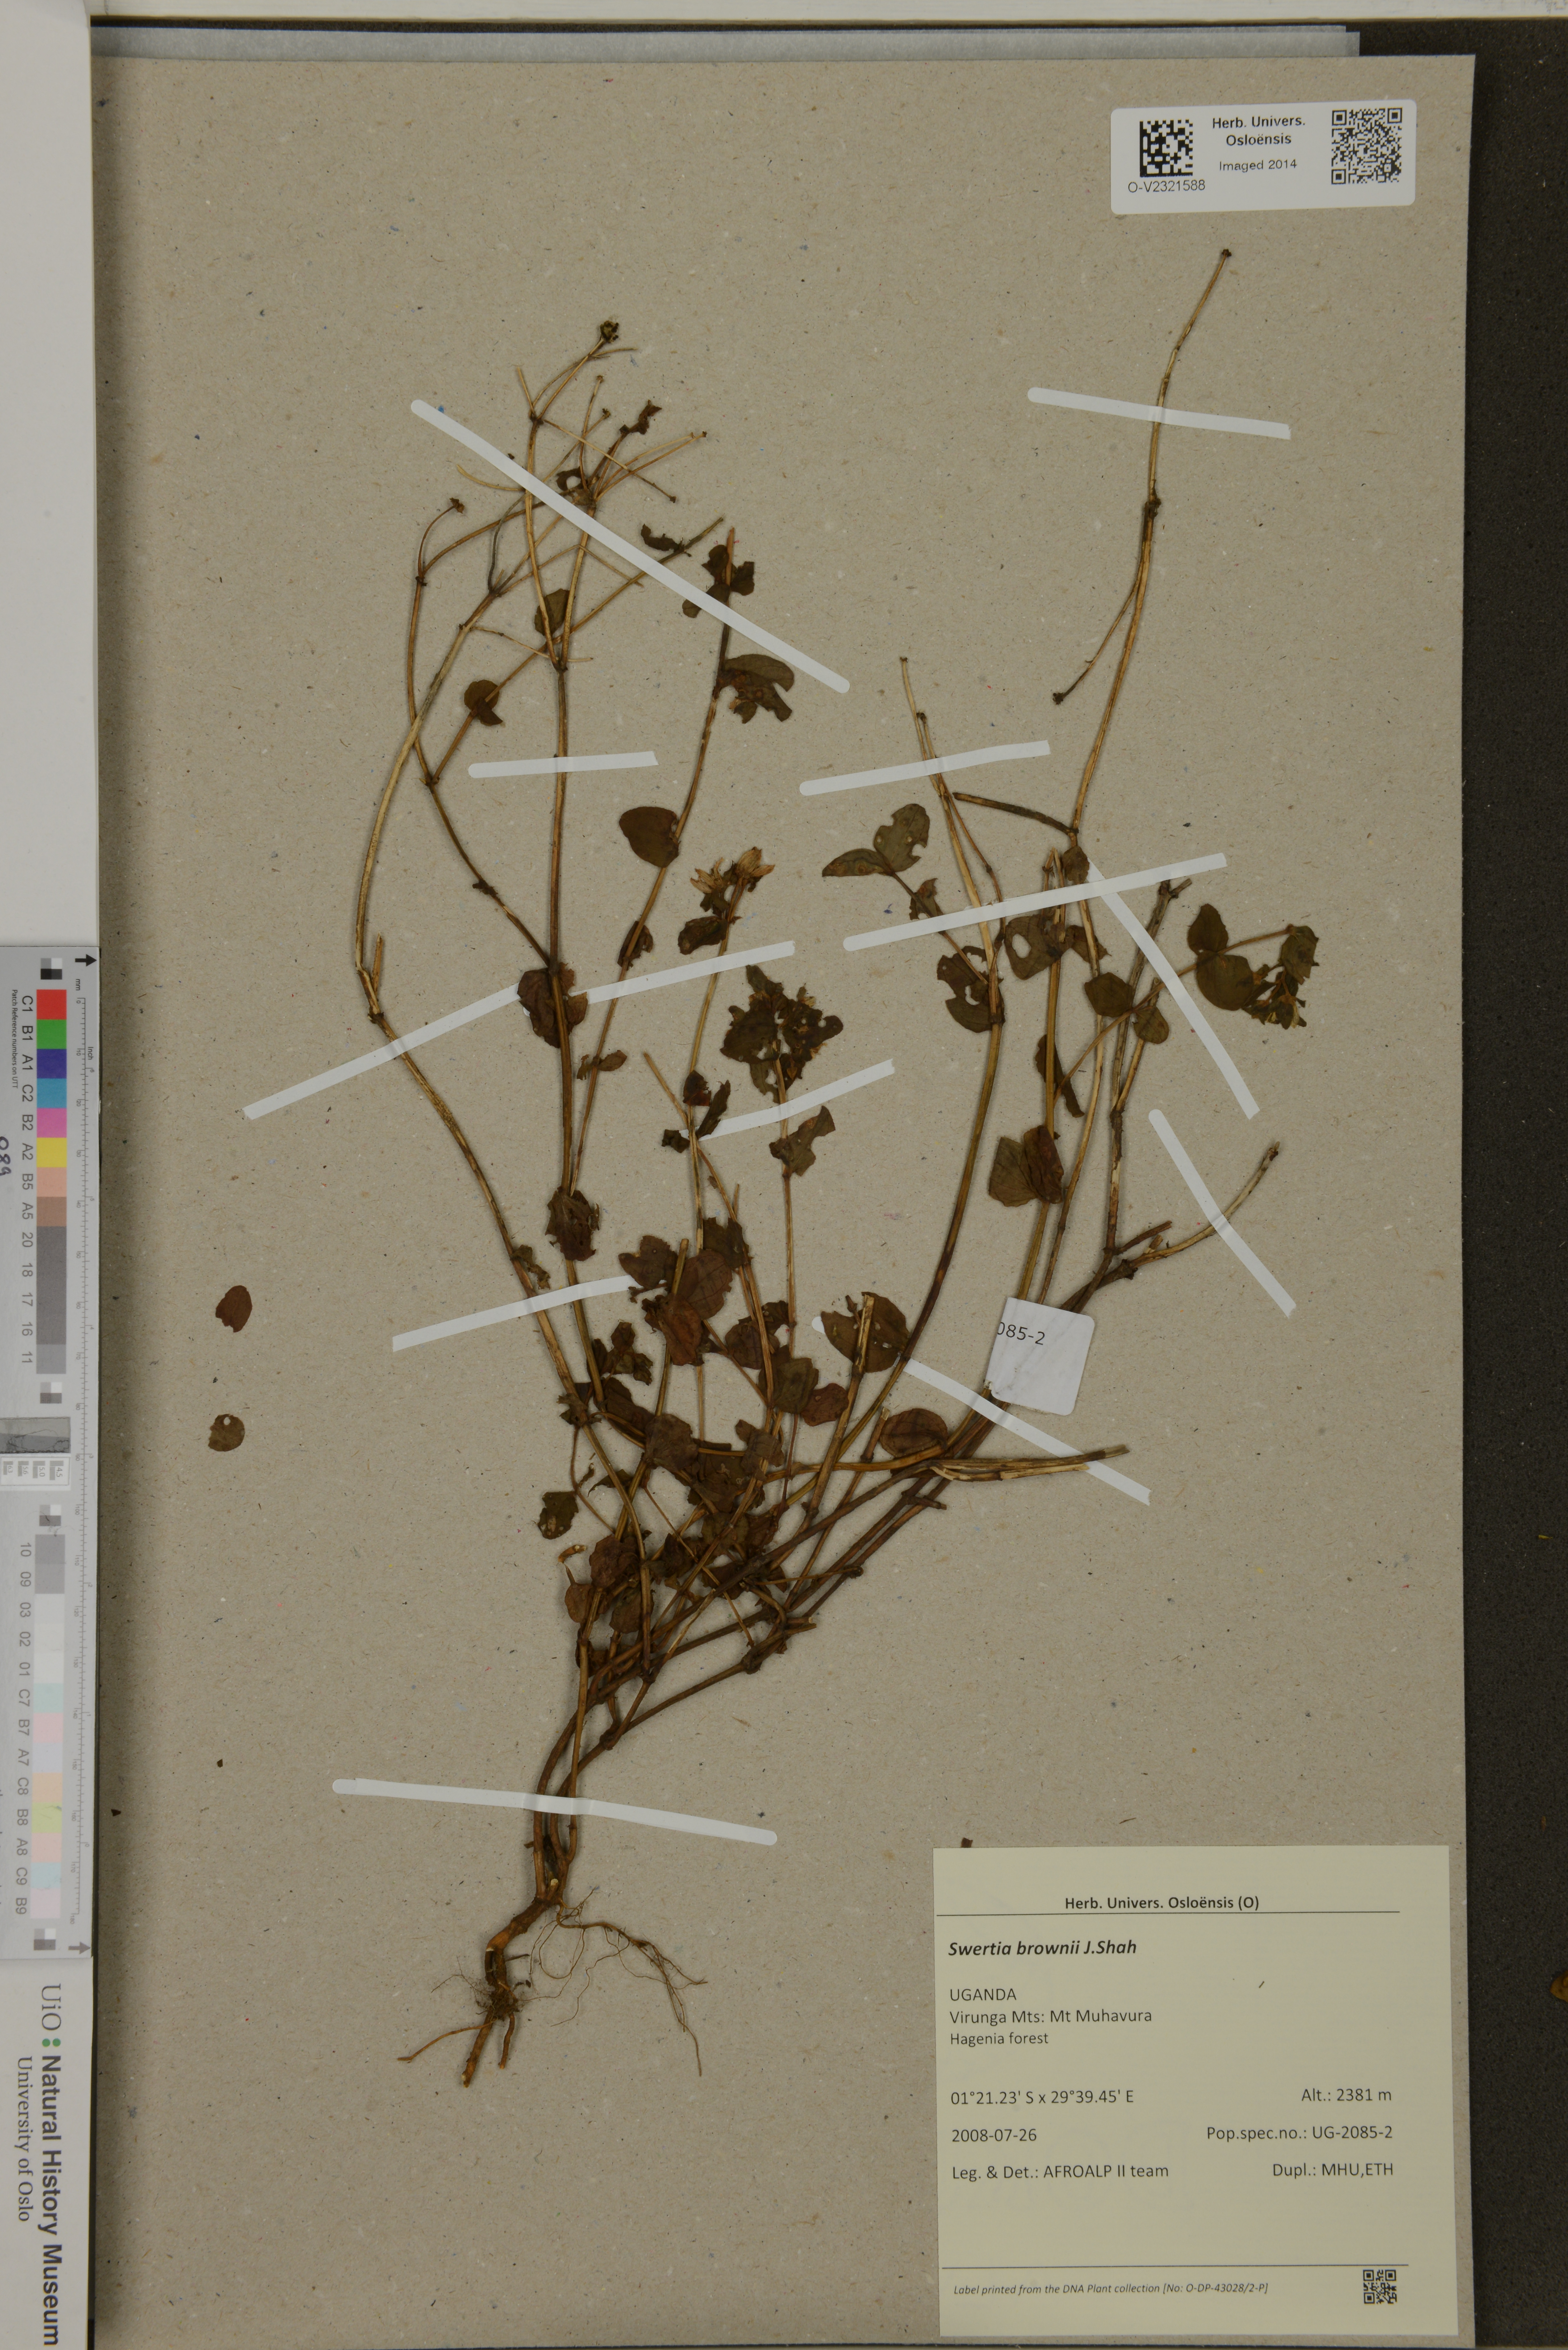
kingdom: Plantae
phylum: Tracheophyta
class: Magnoliopsida
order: Gentianales
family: Gentianaceae
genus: Swertia
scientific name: Swertia brownii
